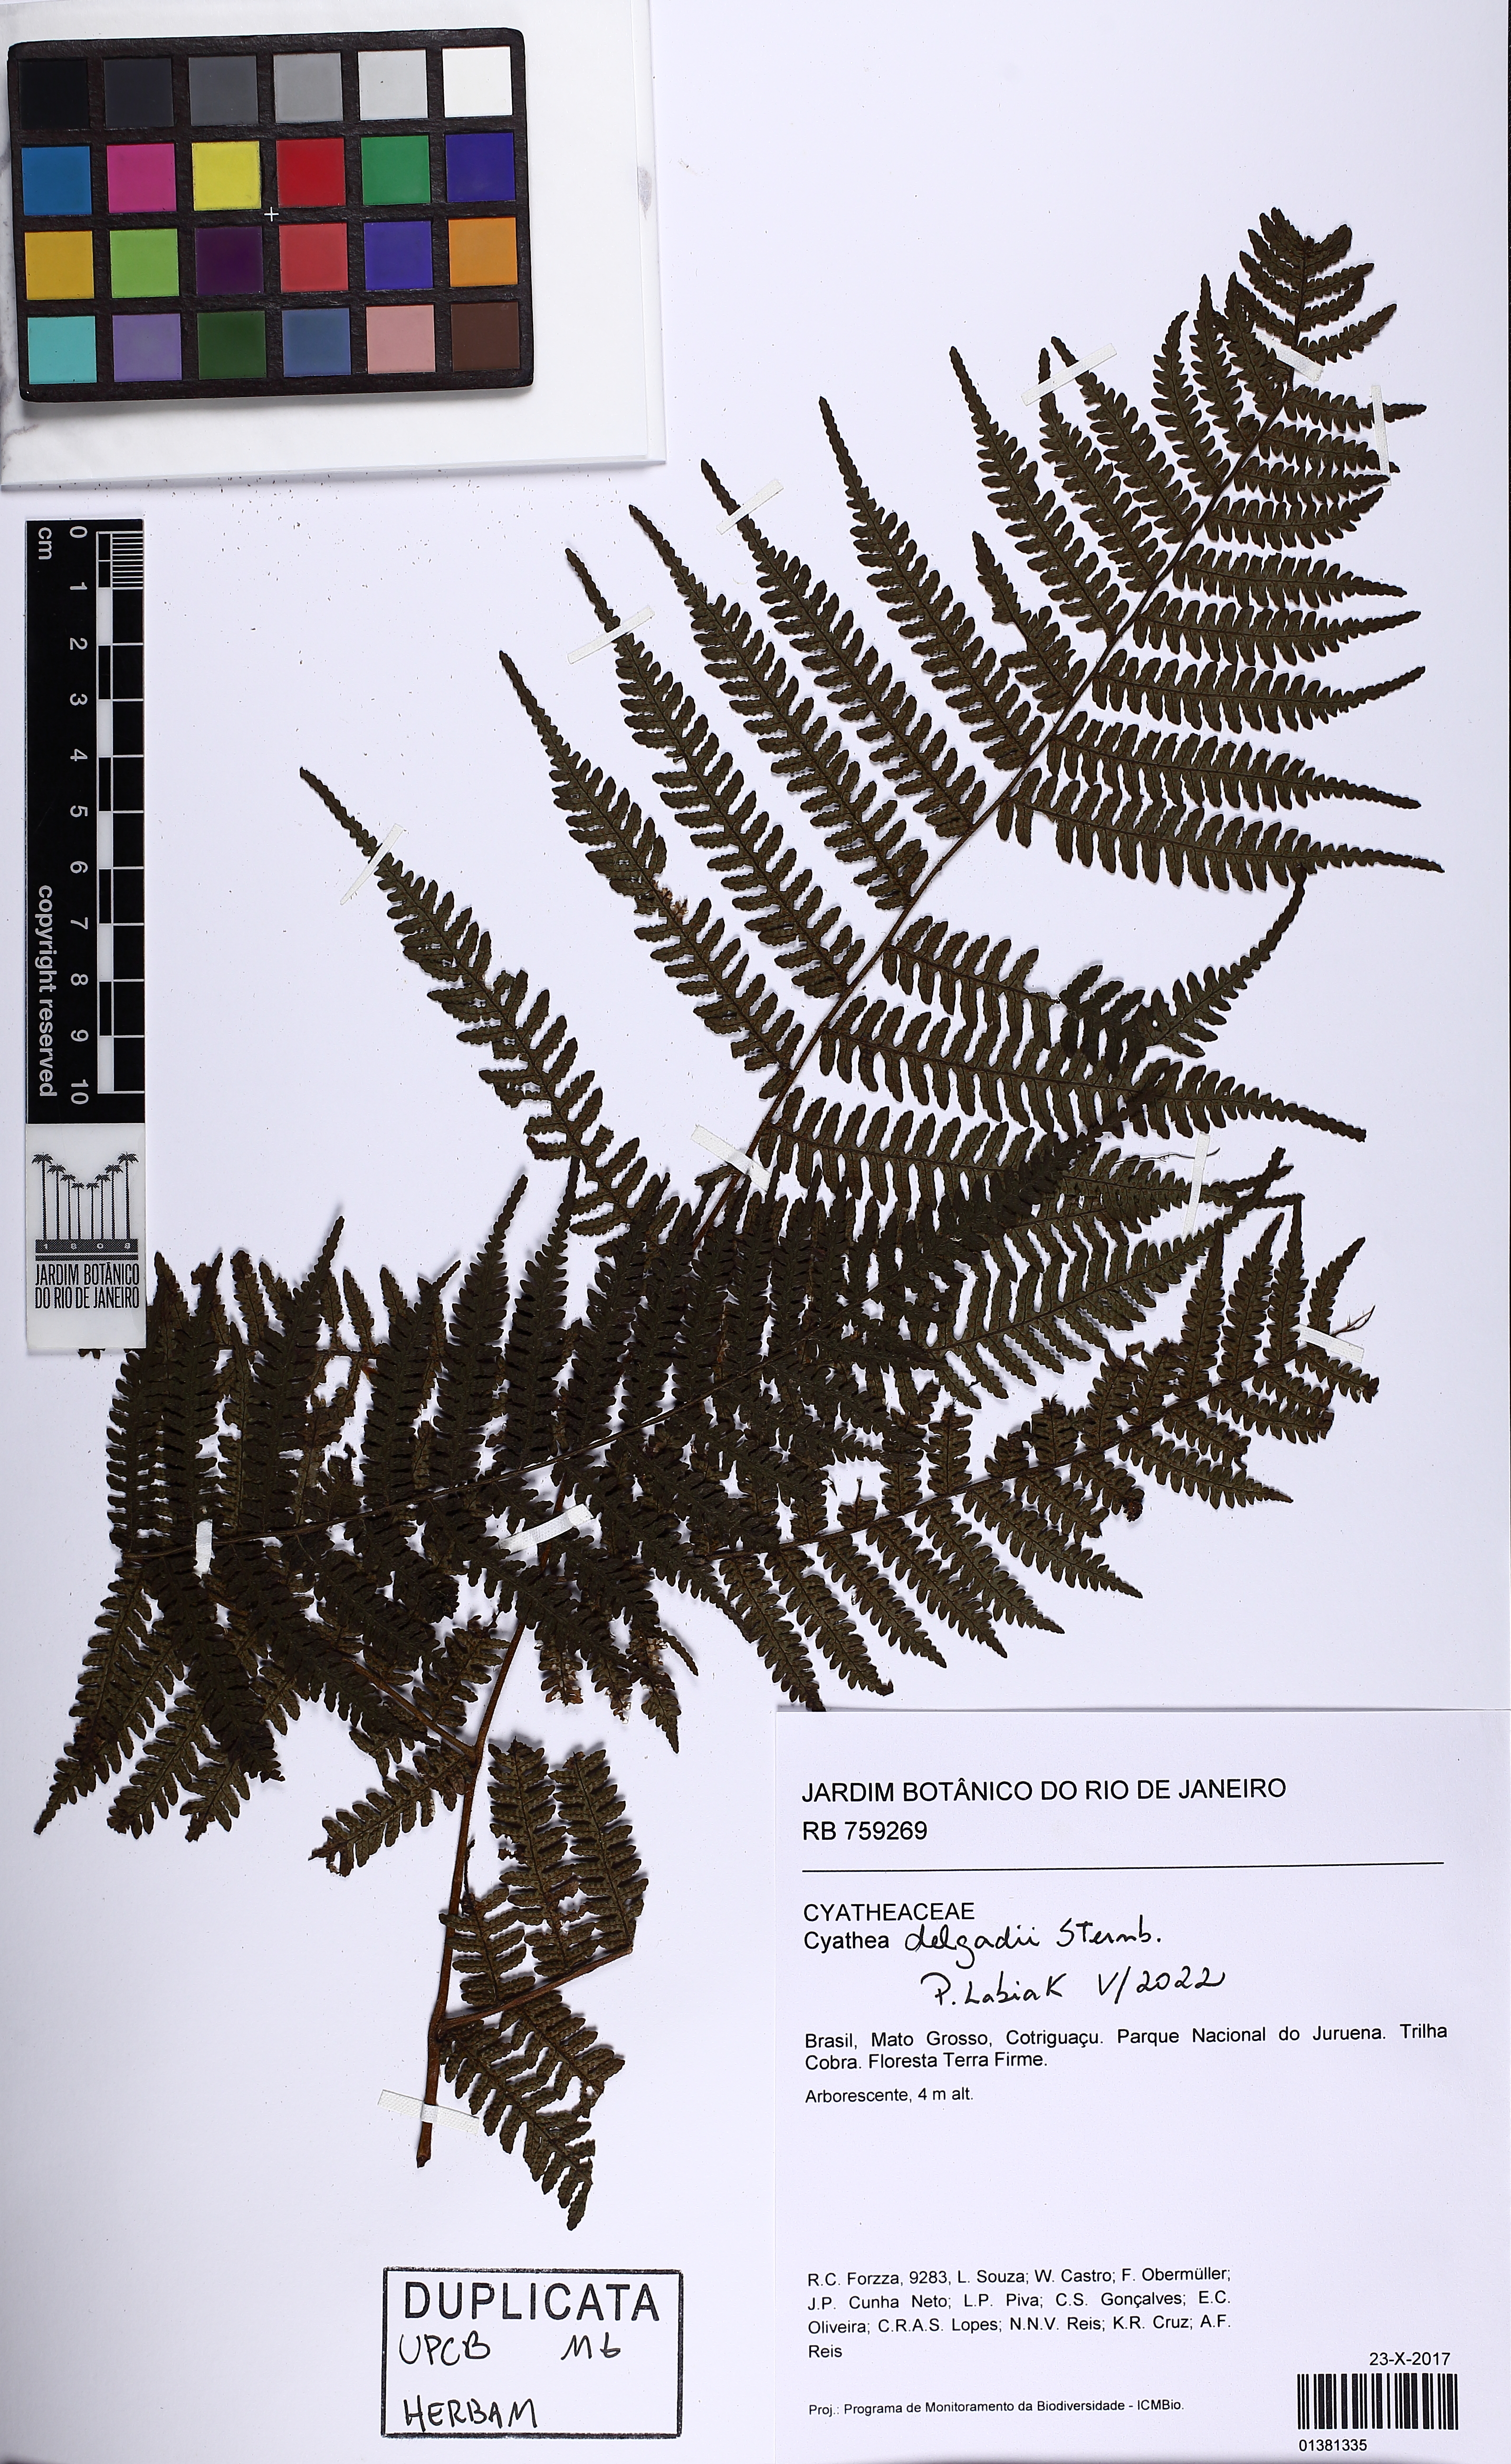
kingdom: Plantae
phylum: Tracheophyta
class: Polypodiopsida
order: Cyatheales
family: Cyatheaceae
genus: Cyathea
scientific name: Cyathea delgadii
